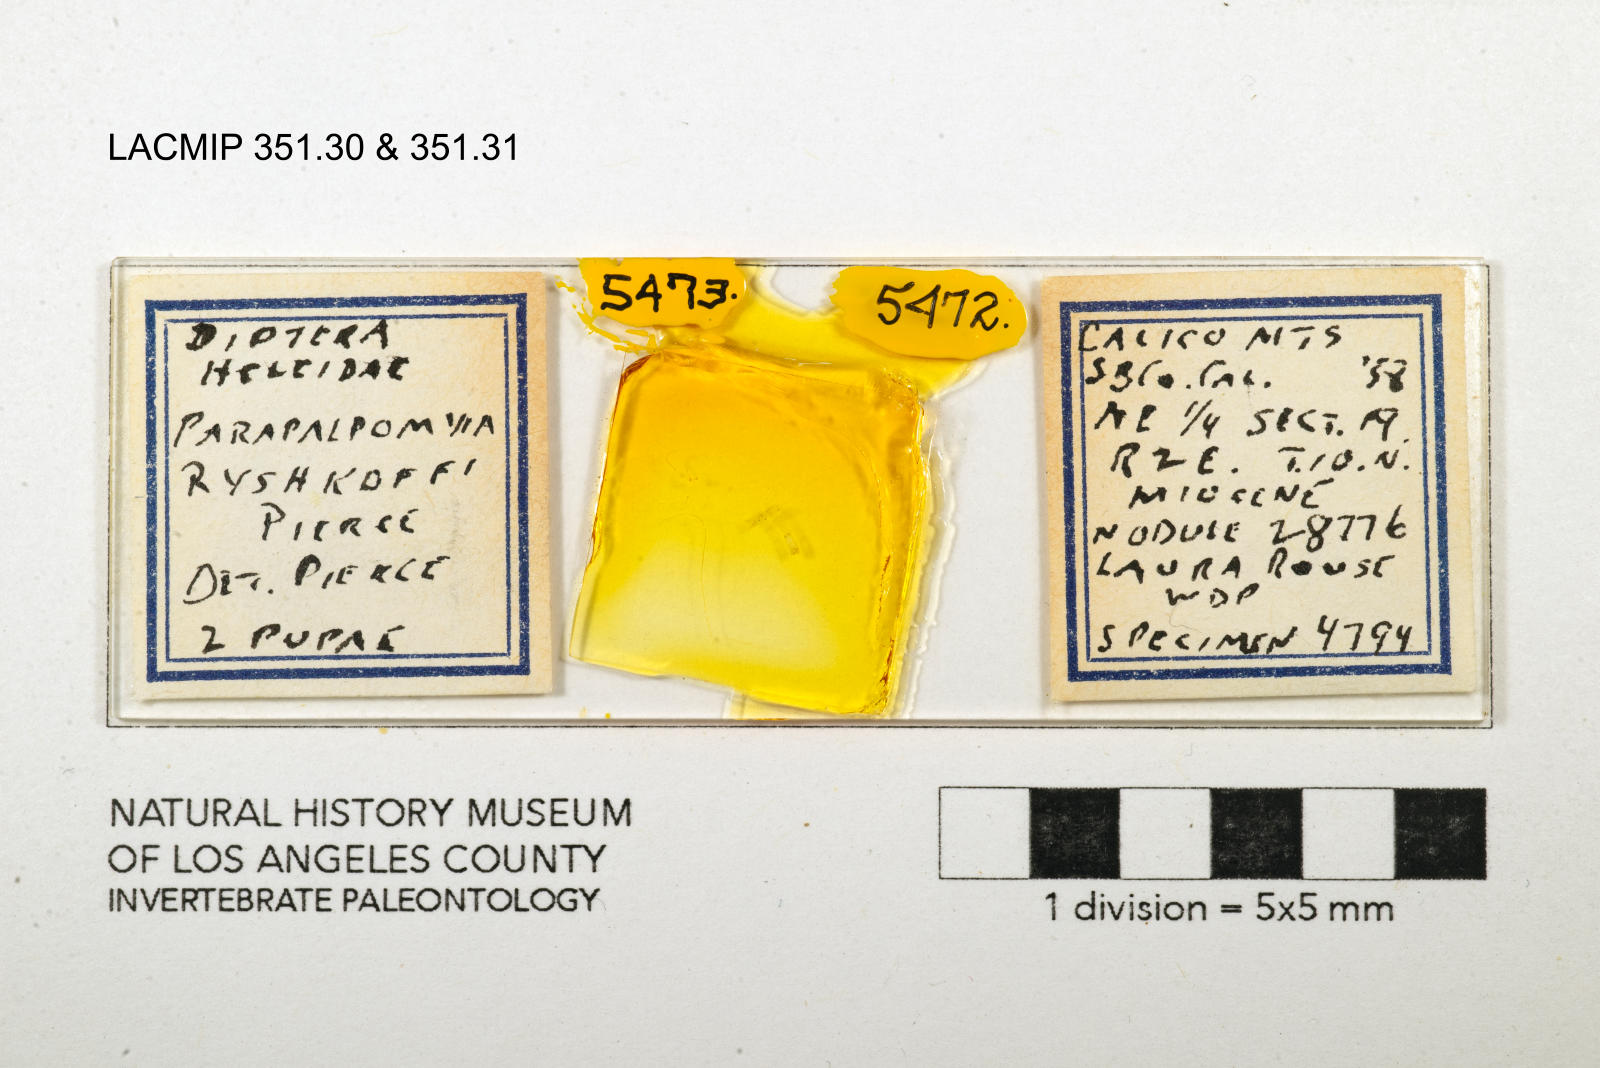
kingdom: Animalia
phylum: Arthropoda
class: Insecta
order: Diptera
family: Ceratopogonidae
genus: Palpomyia
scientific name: Palpomyia ryshkoffi
